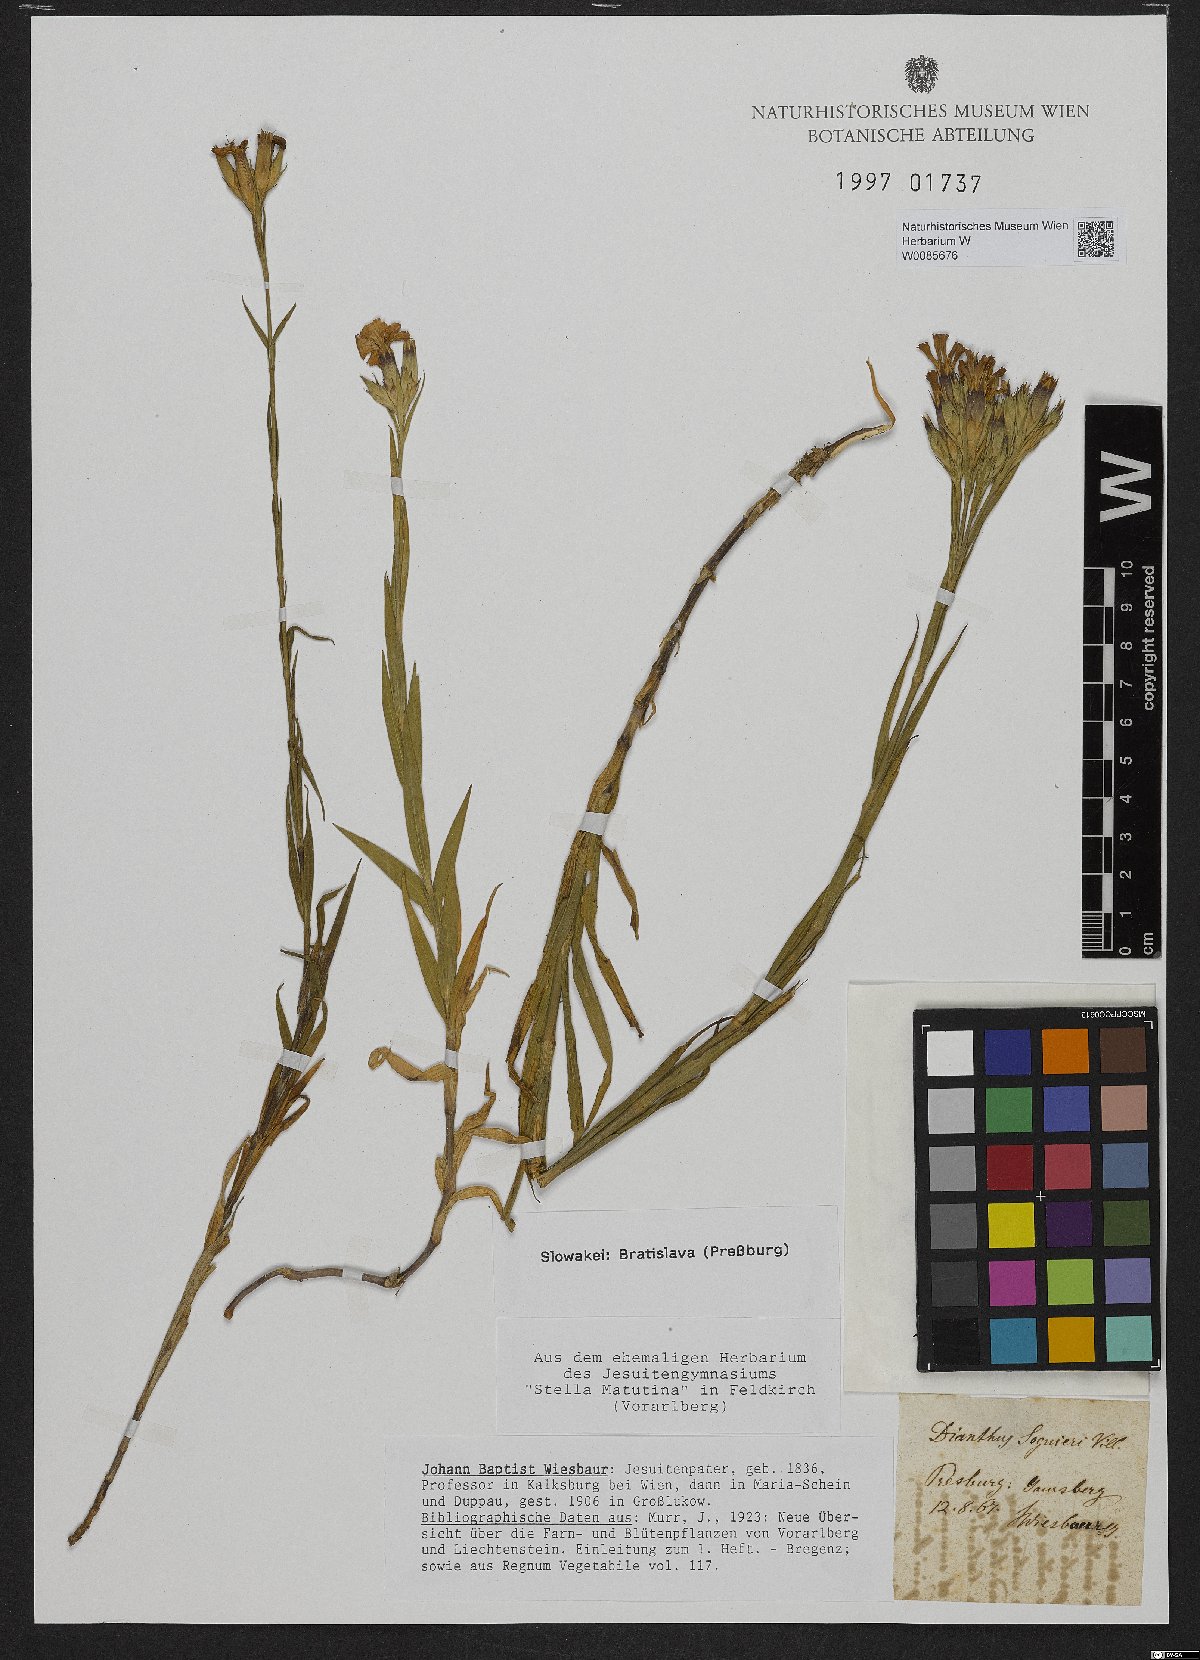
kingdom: Plantae
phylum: Tracheophyta
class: Magnoliopsida
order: Caryophyllales
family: Caryophyllaceae
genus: Dianthus
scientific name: Dianthus seguieri
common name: Ragged pink
